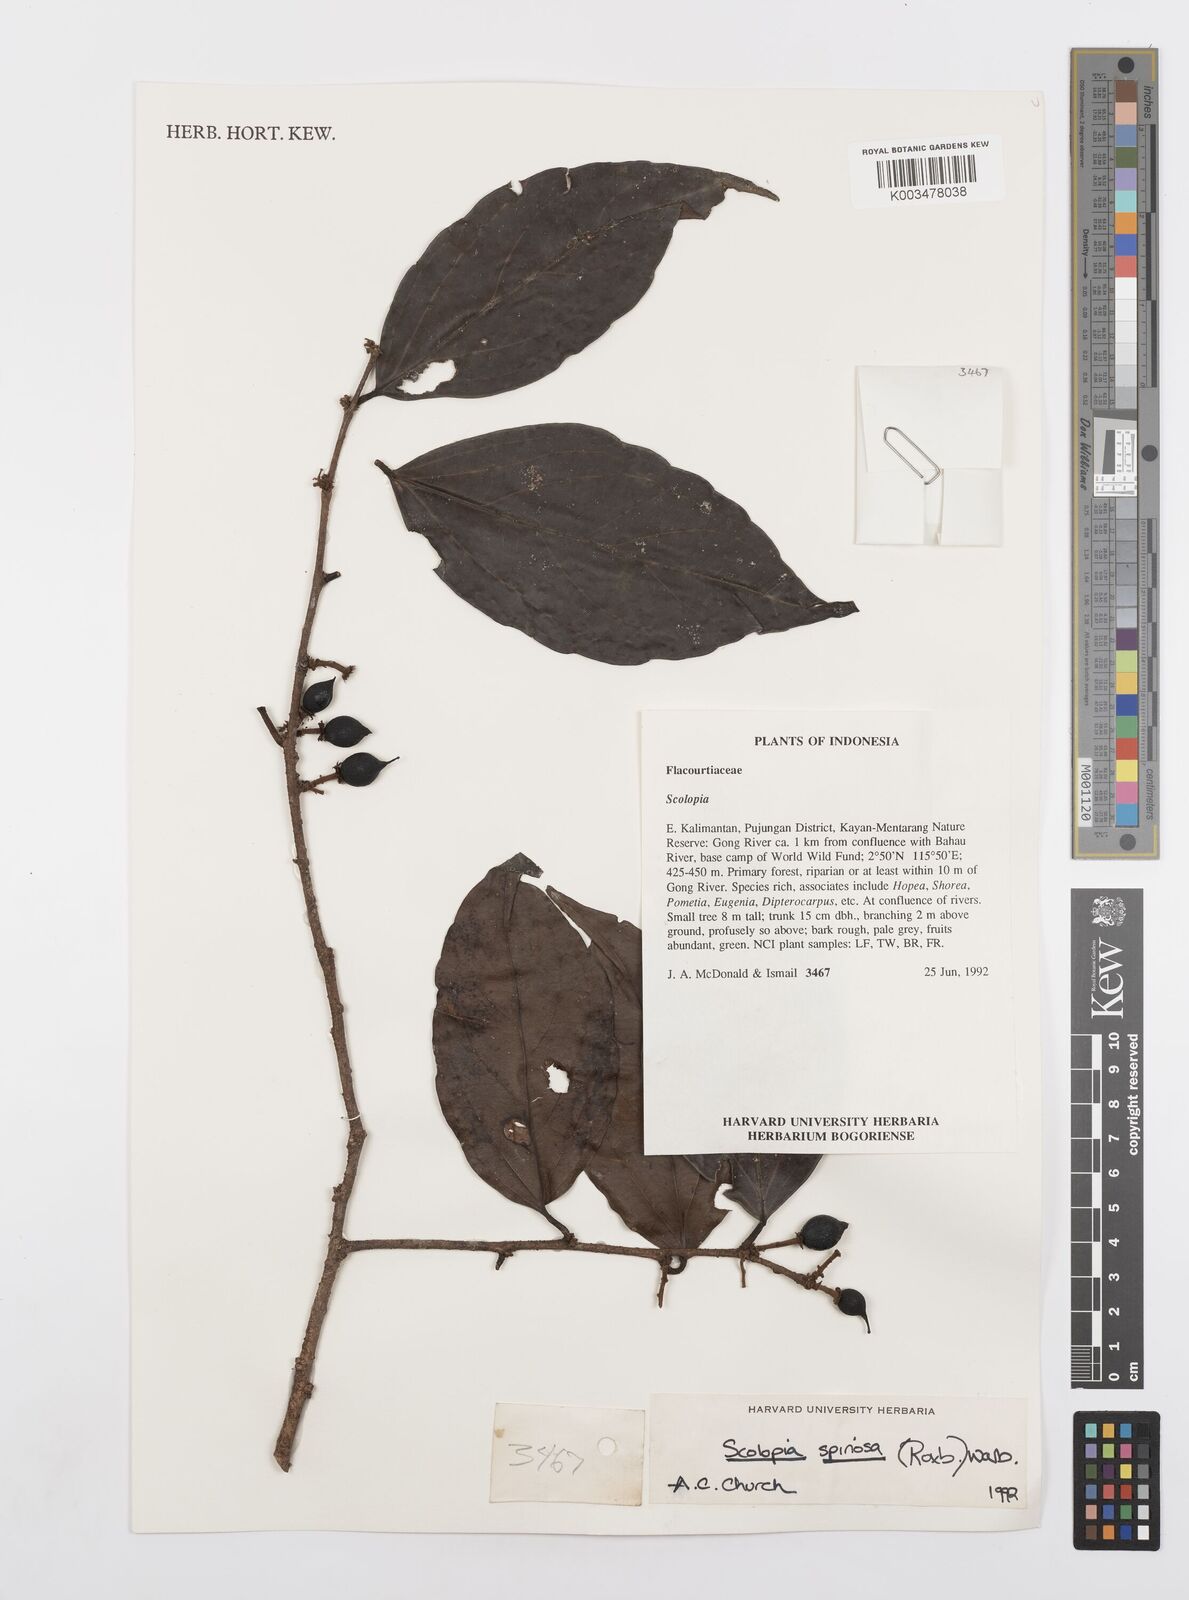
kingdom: Plantae
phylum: Tracheophyta
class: Magnoliopsida
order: Malpighiales
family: Salicaceae
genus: Scolopia
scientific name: Scolopia spinosa
